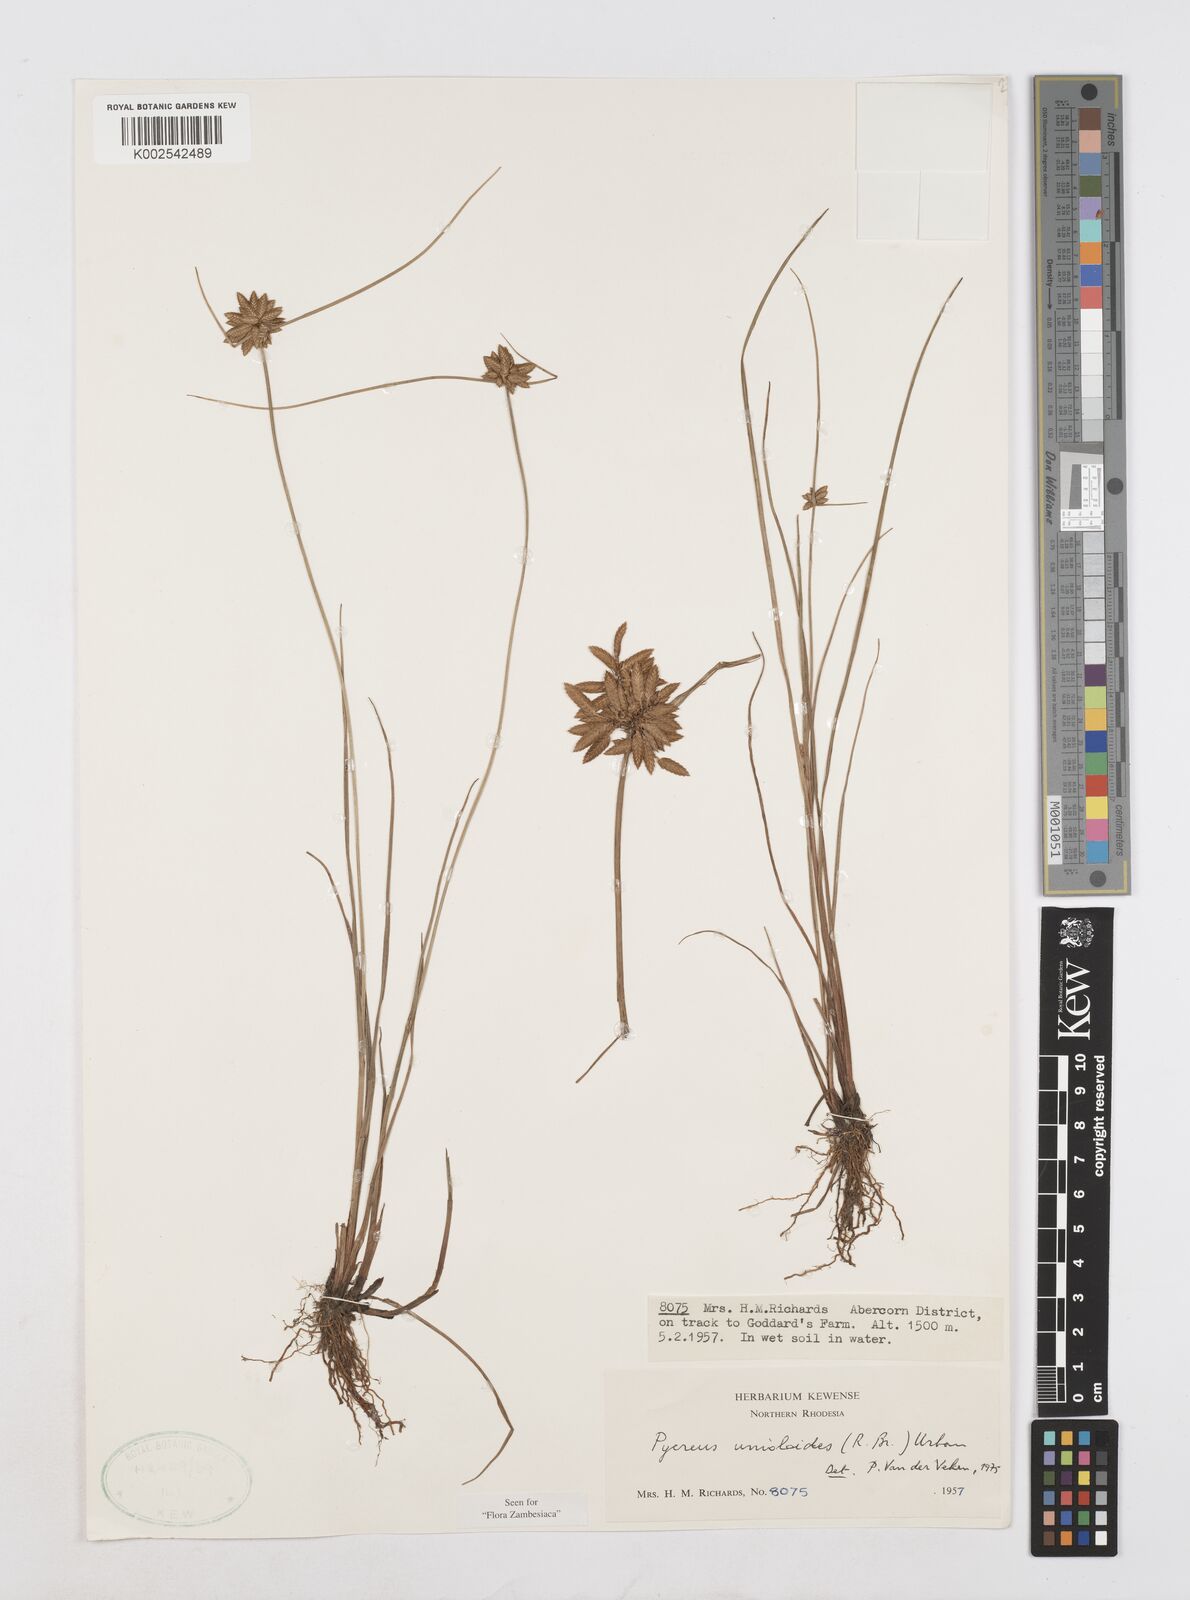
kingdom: Plantae
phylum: Tracheophyta
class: Liliopsida
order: Poales
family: Cyperaceae
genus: Cyperus
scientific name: Cyperus unioloides
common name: Uniola flatsedge
